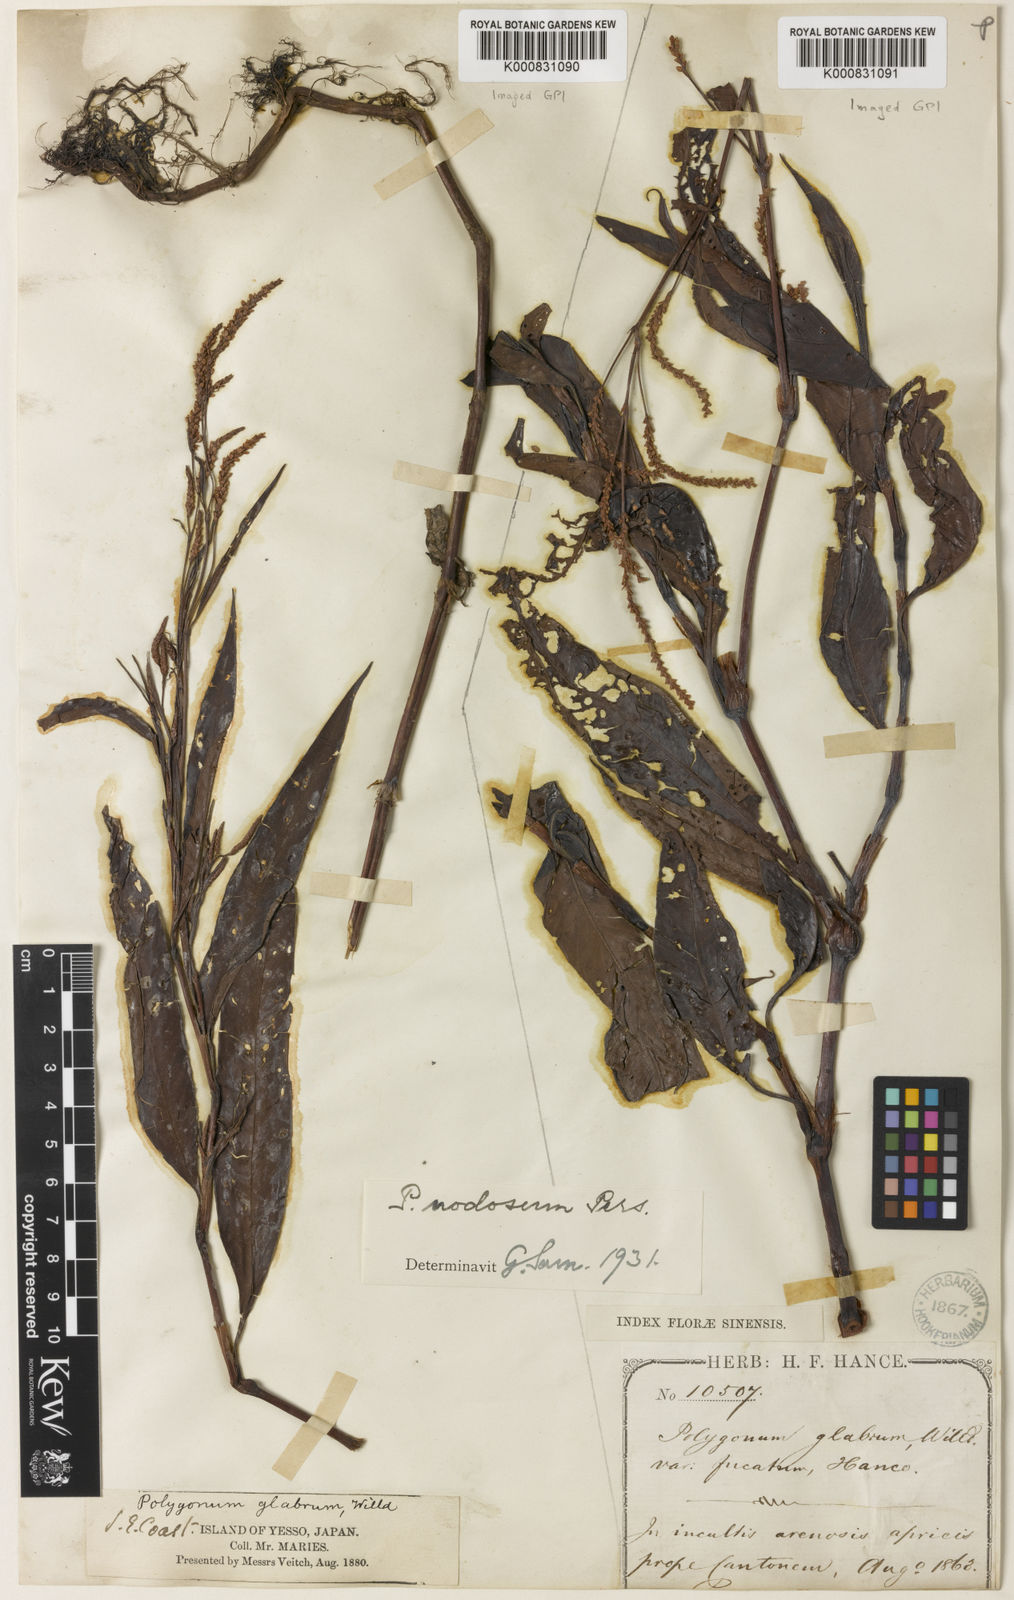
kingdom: Plantae
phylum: Tracheophyta
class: Magnoliopsida
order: Caryophyllales
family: Polygonaceae
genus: Persicaria
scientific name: Persicaria
